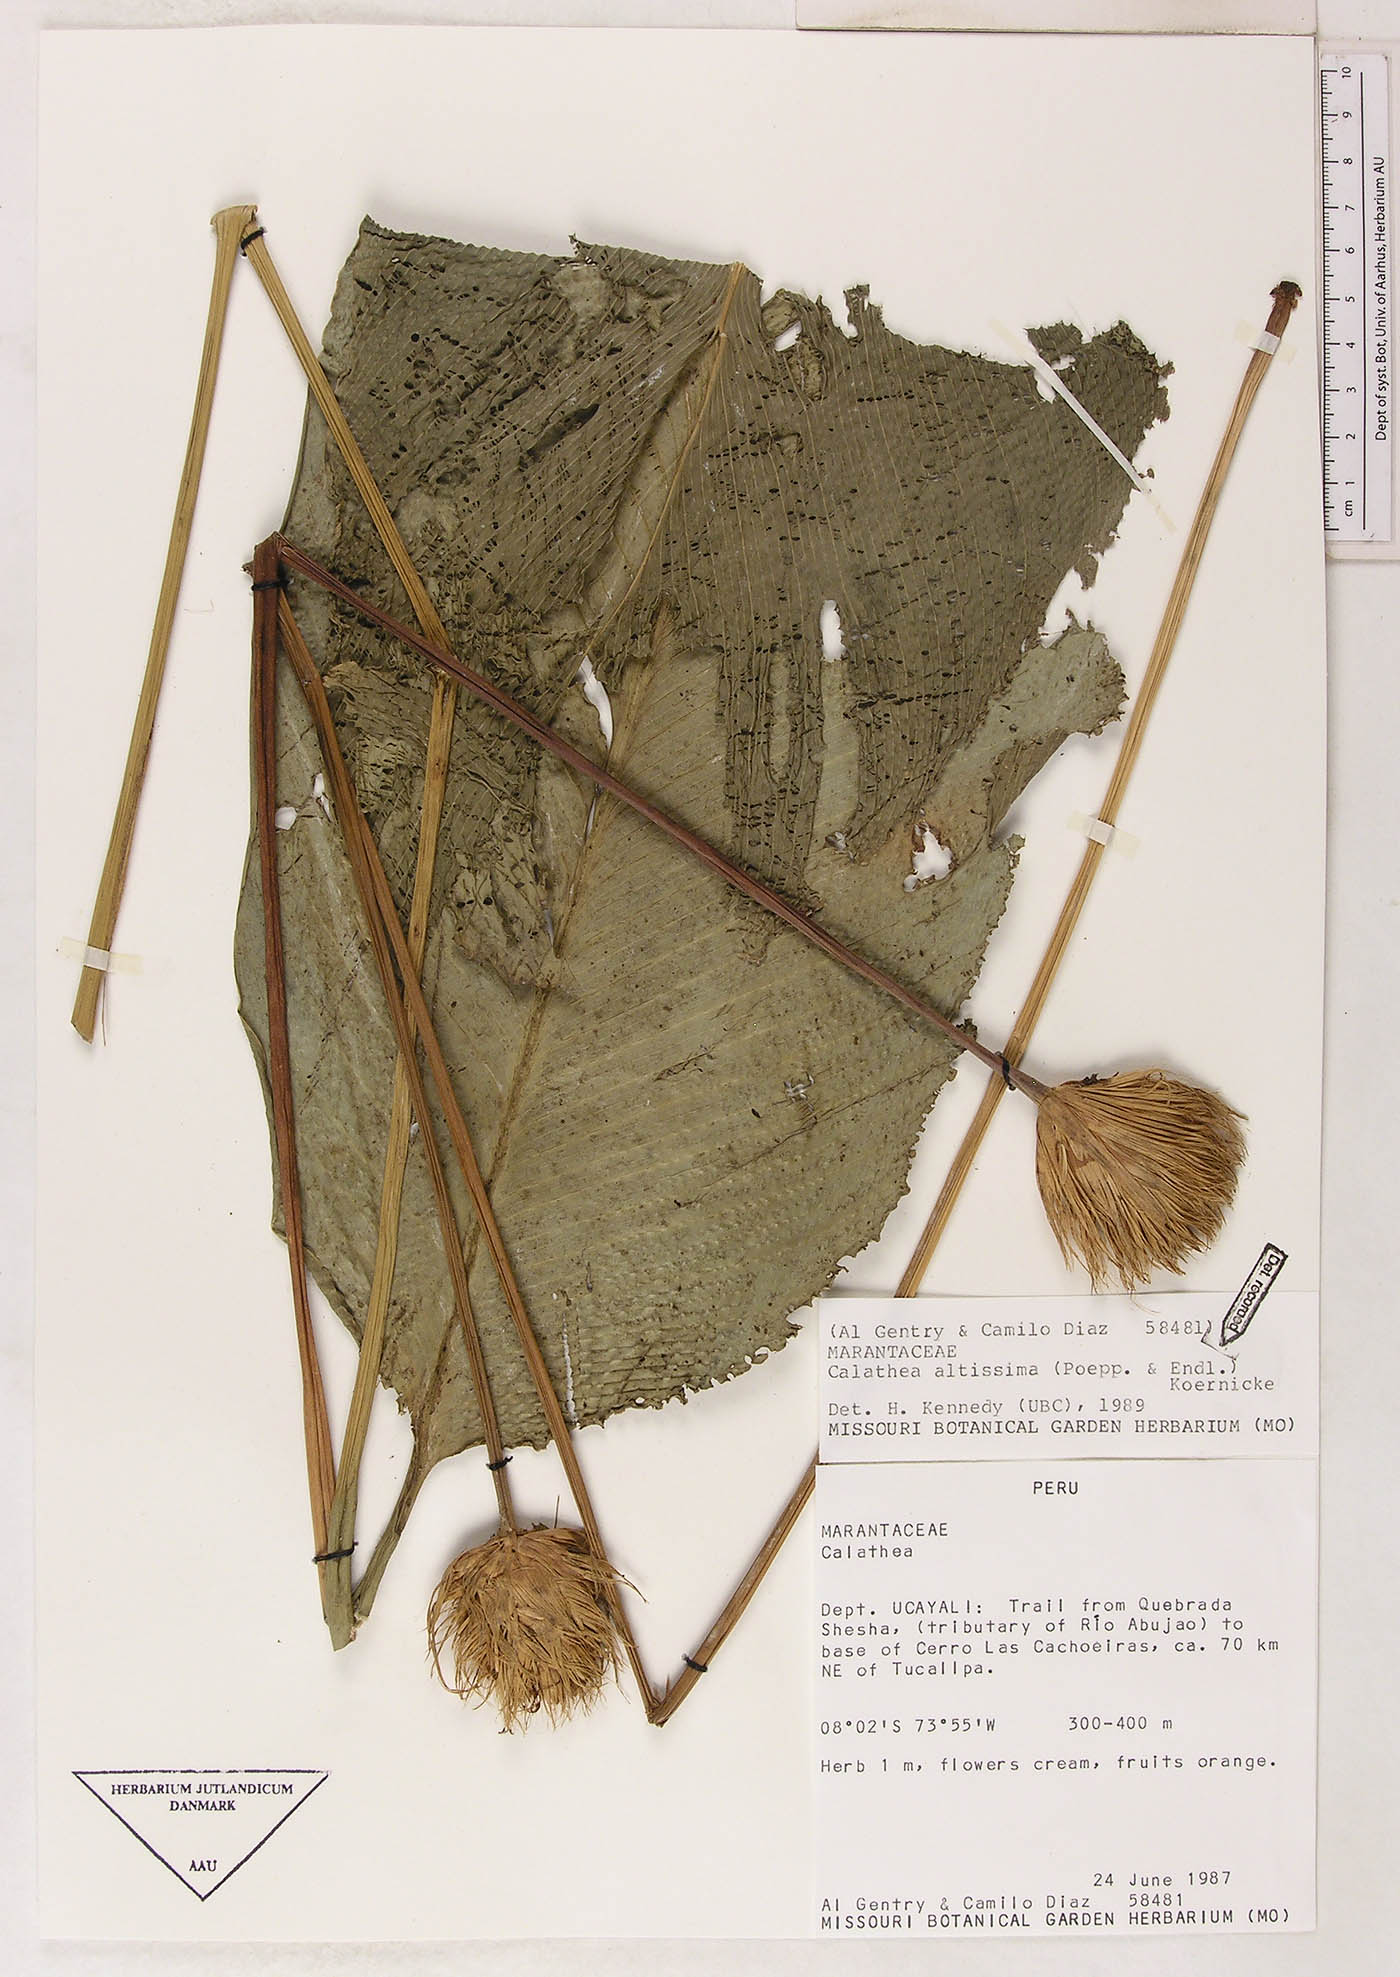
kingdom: Plantae
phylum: Tracheophyta
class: Liliopsida
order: Zingiberales
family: Marantaceae
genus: Goeppertia
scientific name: Goeppertia altissima
